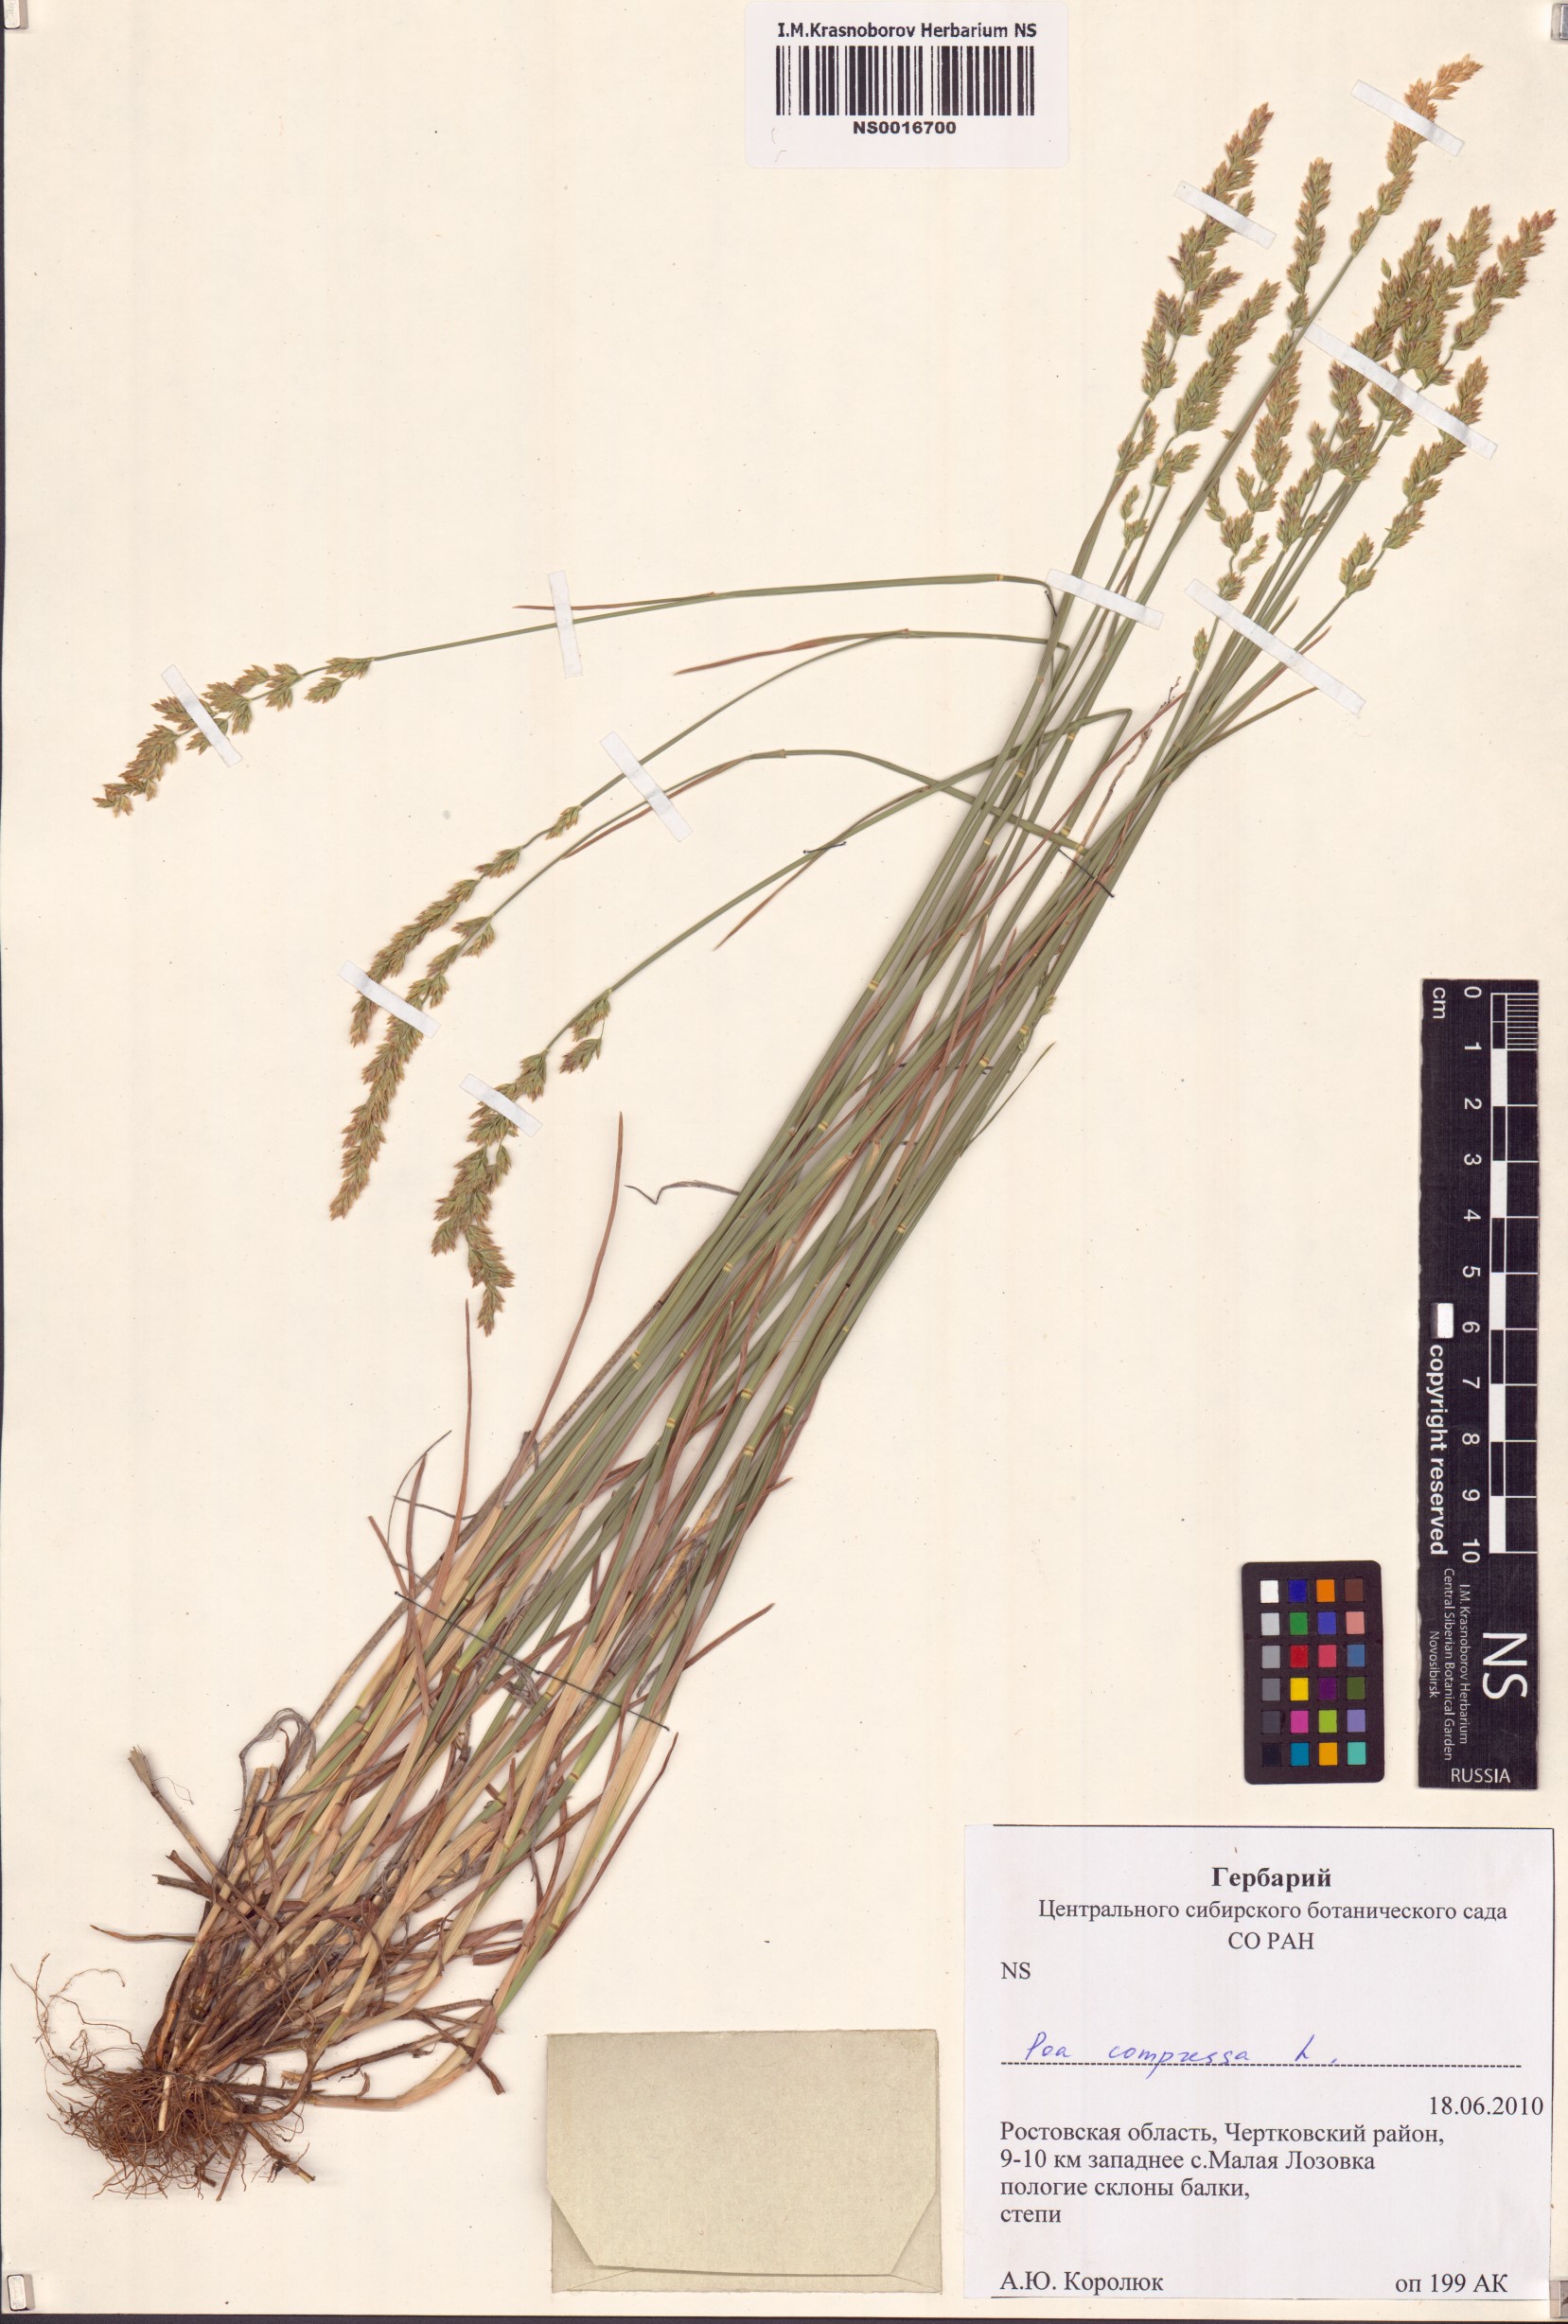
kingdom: Plantae
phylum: Tracheophyta
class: Liliopsida
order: Poales
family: Poaceae
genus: Poa
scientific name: Poa compressa
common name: Canada bluegrass
